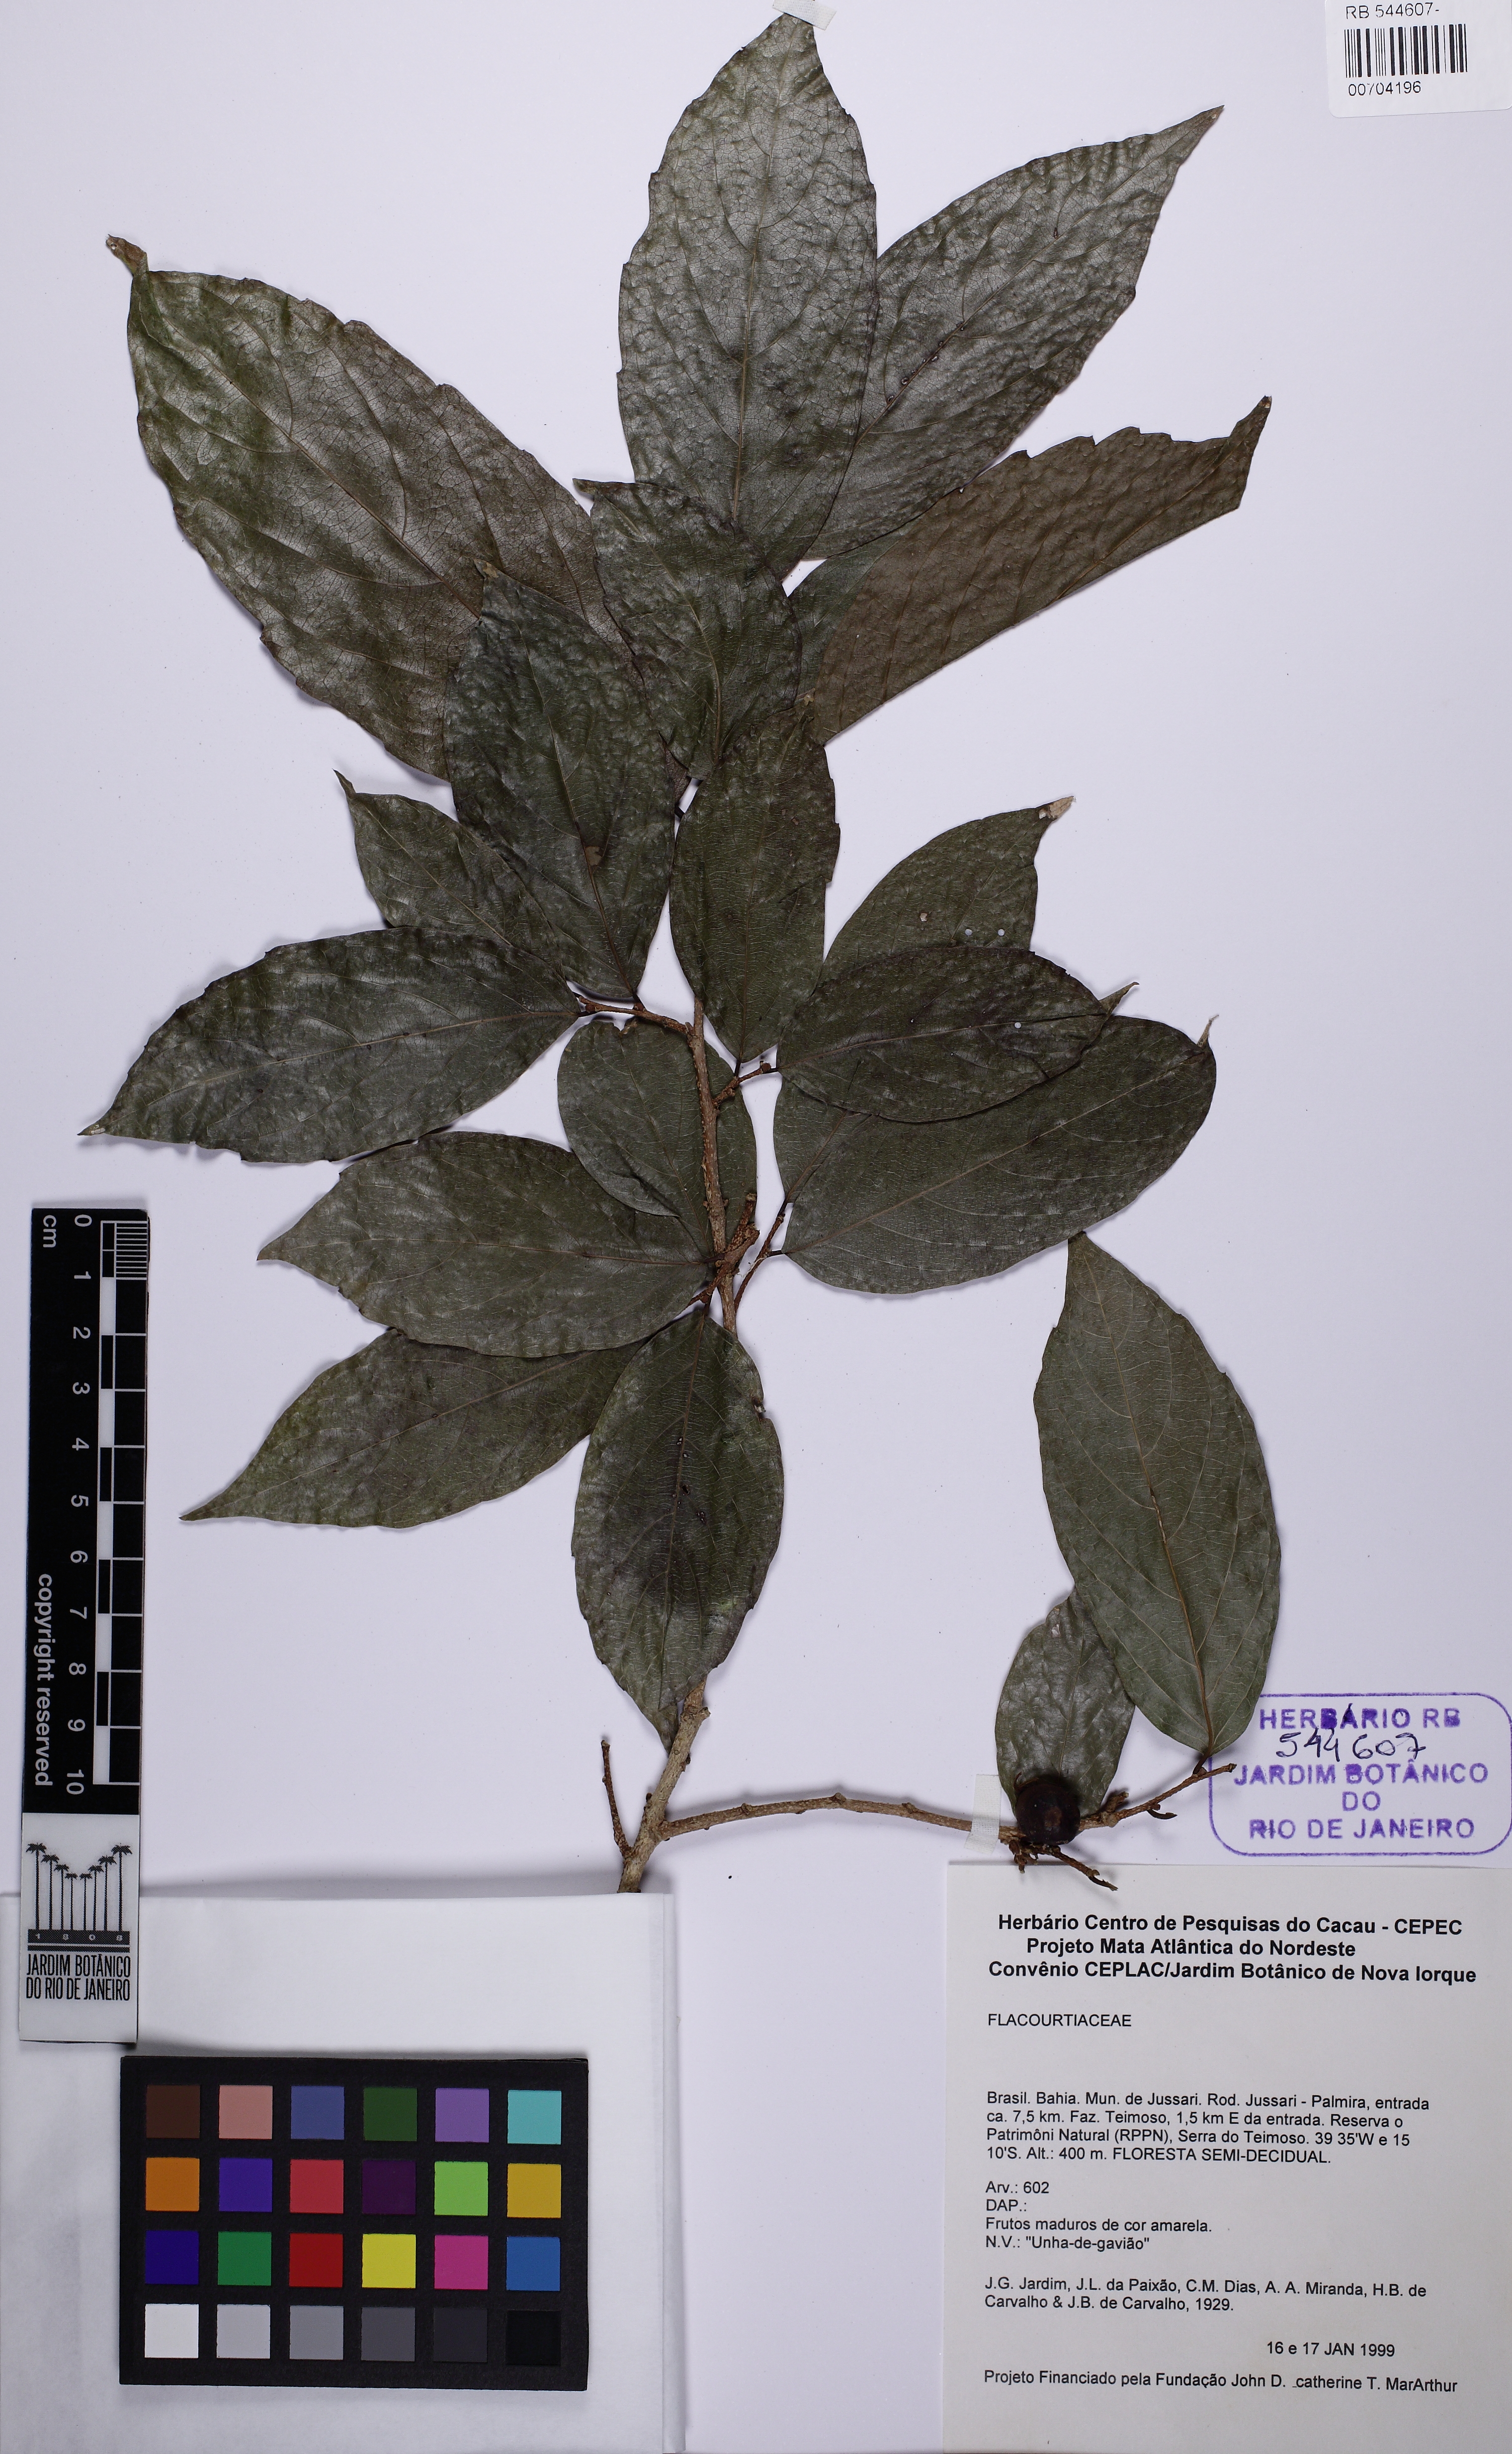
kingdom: Plantae
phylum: Tracheophyta
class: Magnoliopsida
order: Rosales
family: Cannabaceae
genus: Ampelocera
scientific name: Ampelocera glabra
